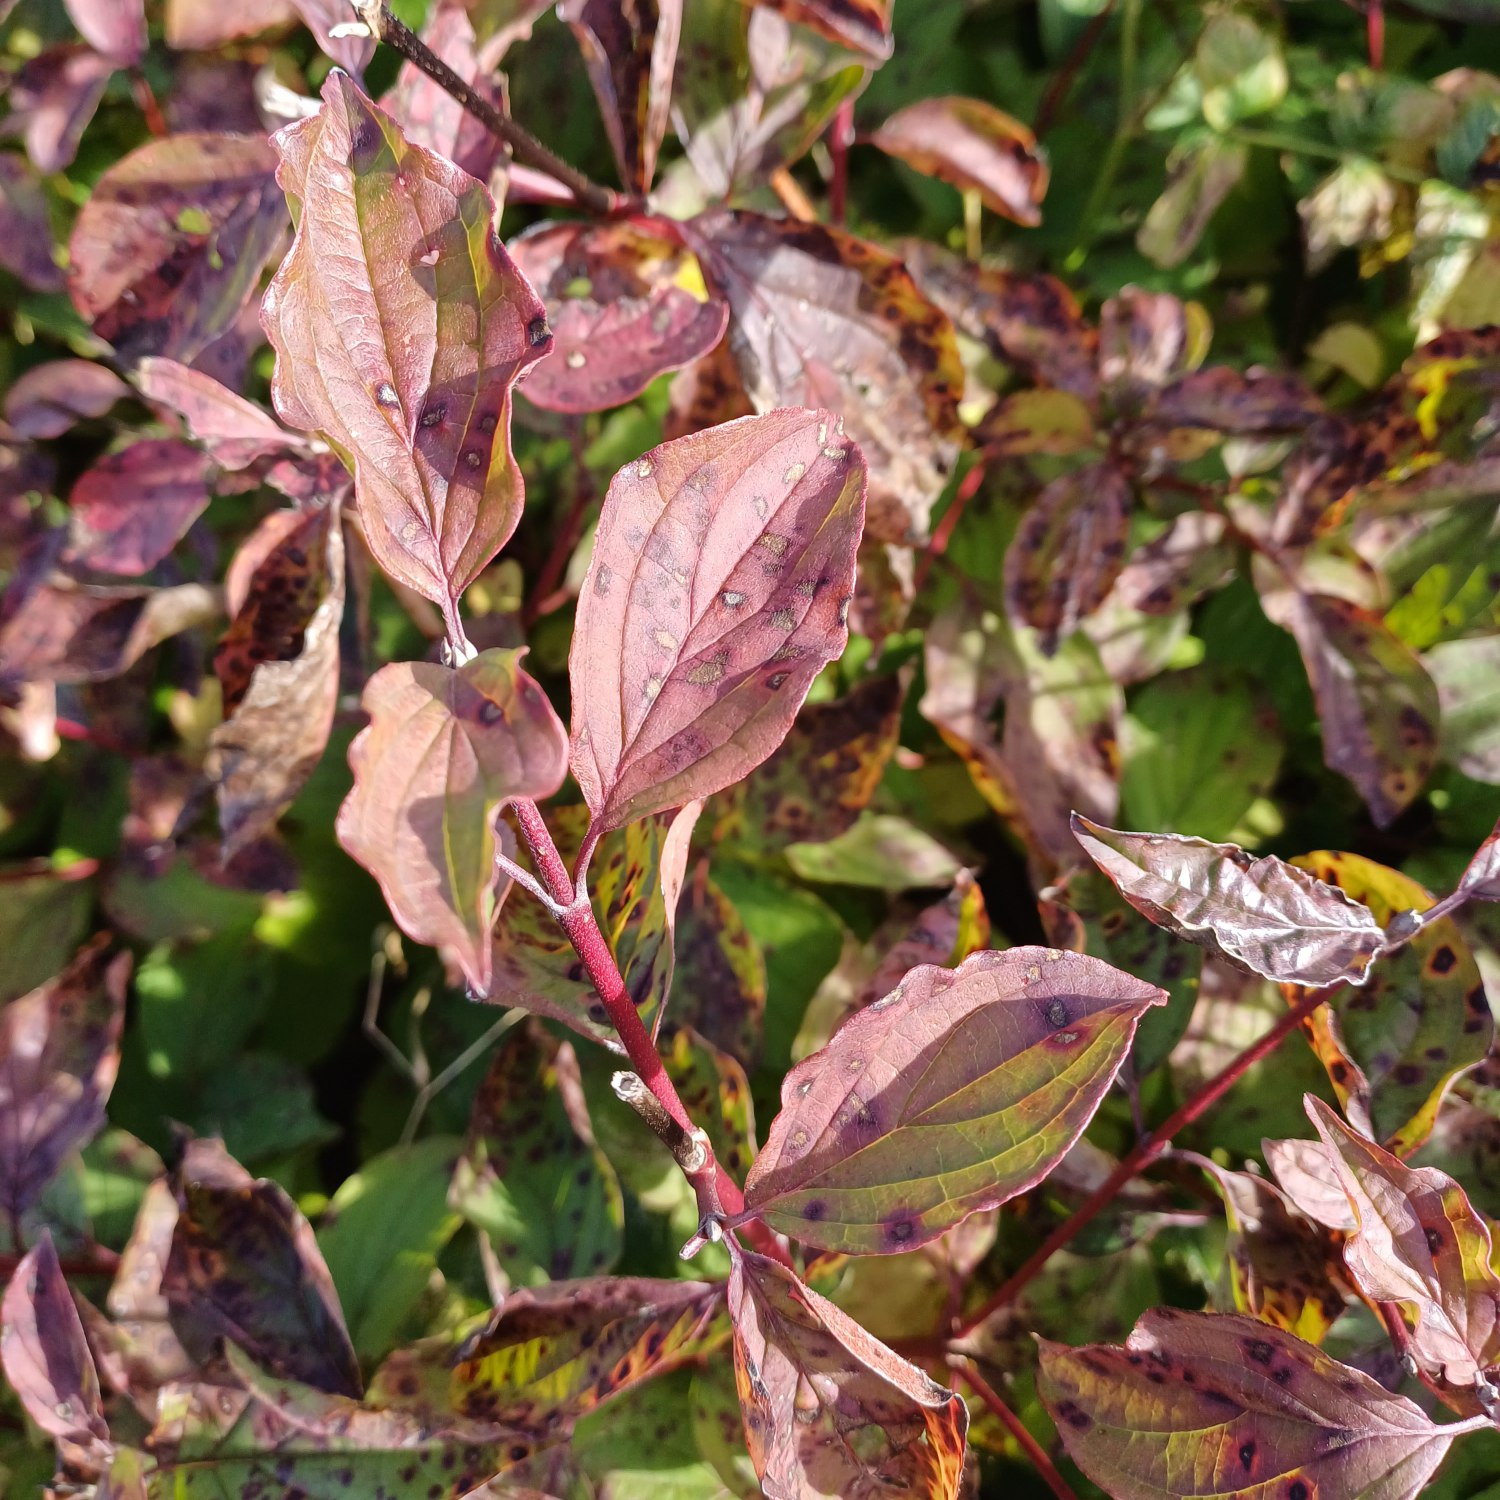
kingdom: Plantae
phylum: Tracheophyta
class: Magnoliopsida
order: Cornales
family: Cornaceae
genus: Cornus
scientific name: Cornus sanguinea
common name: Rød kornel
